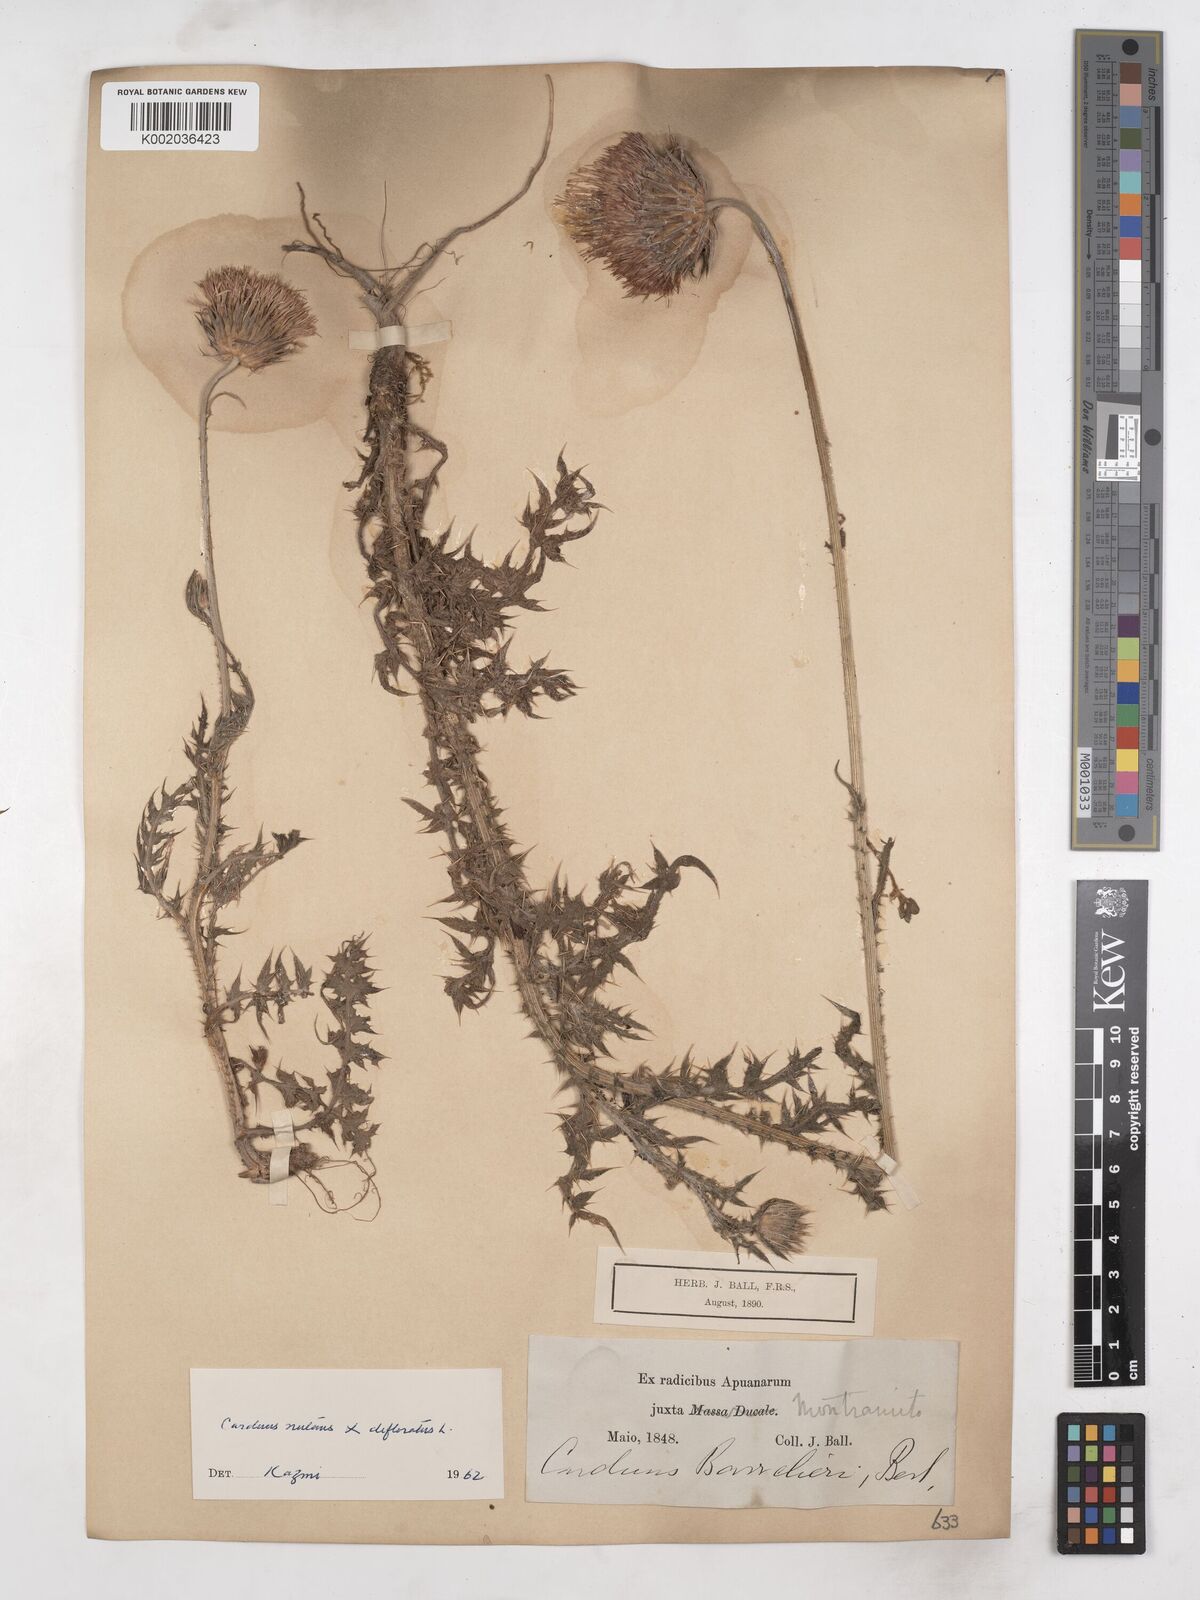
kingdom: Plantae
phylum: Tracheophyta
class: Magnoliopsida
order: Asterales
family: Asteraceae
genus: Carduus
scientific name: Carduus carlinifolius
